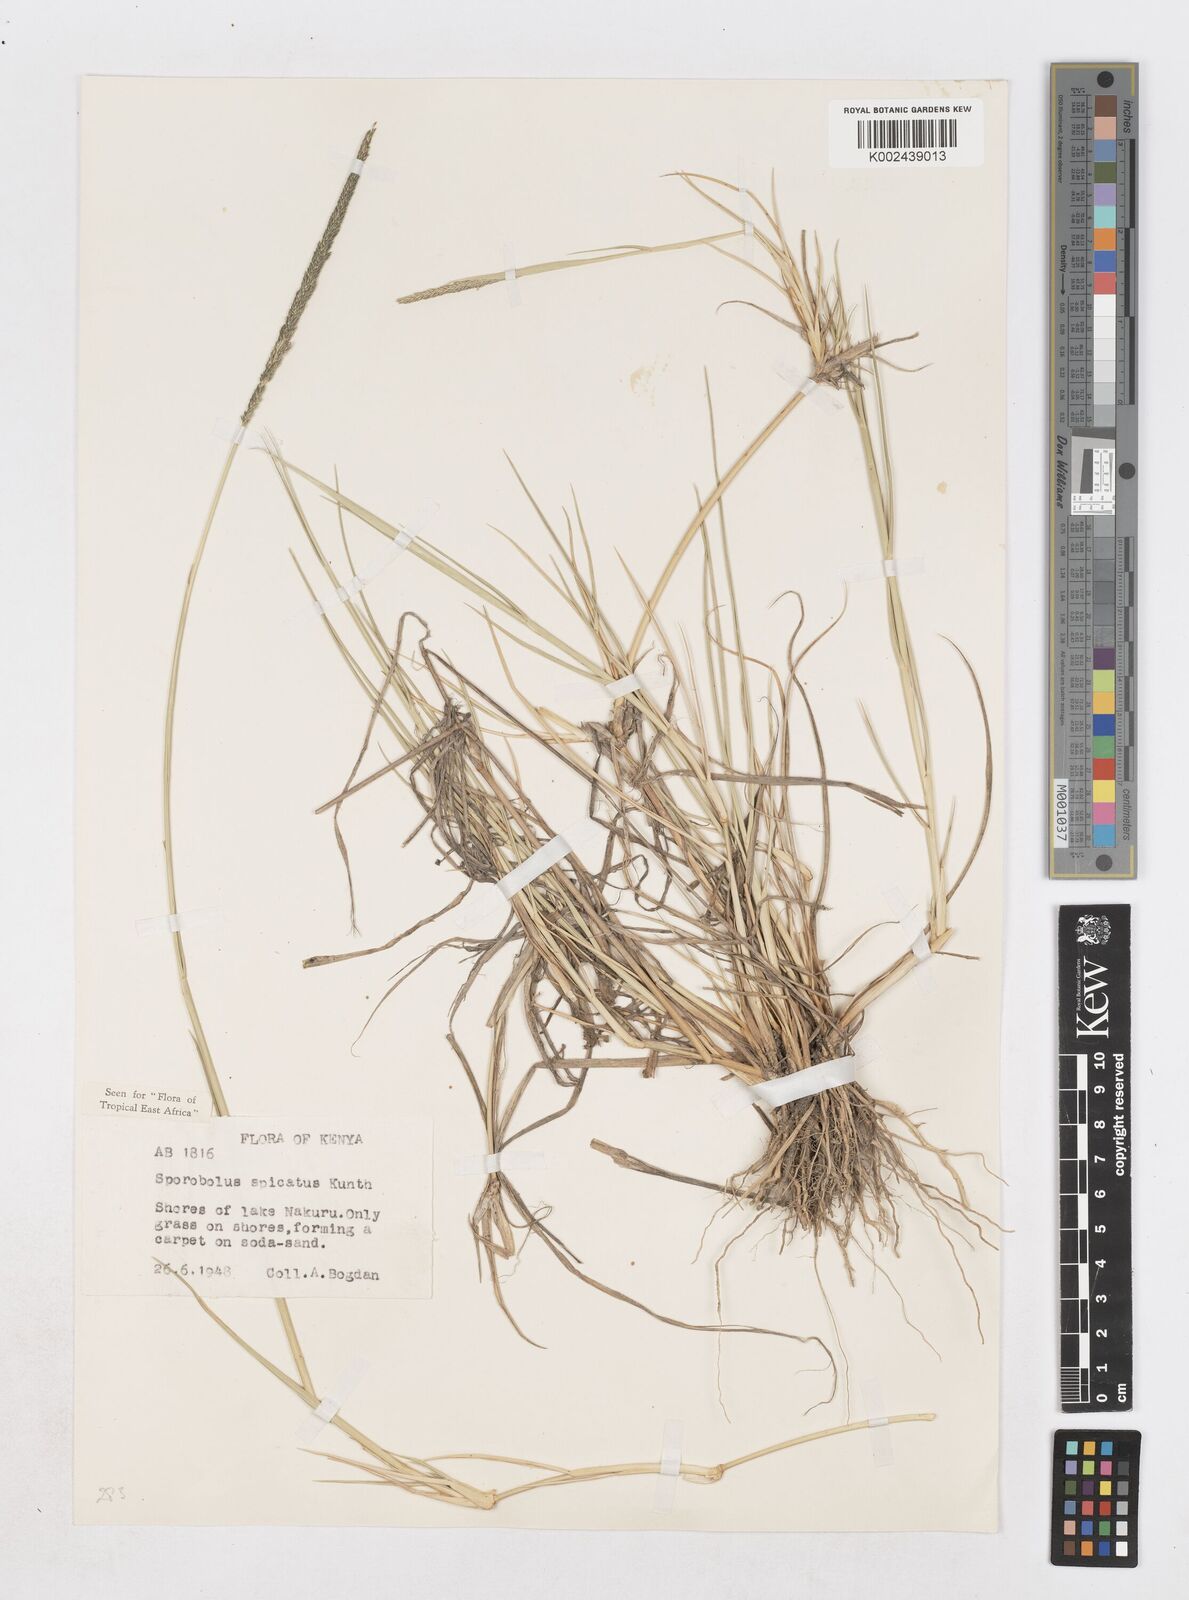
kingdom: Plantae
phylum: Tracheophyta
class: Liliopsida
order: Poales
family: Poaceae
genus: Sporobolus
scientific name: Sporobolus spicatus
